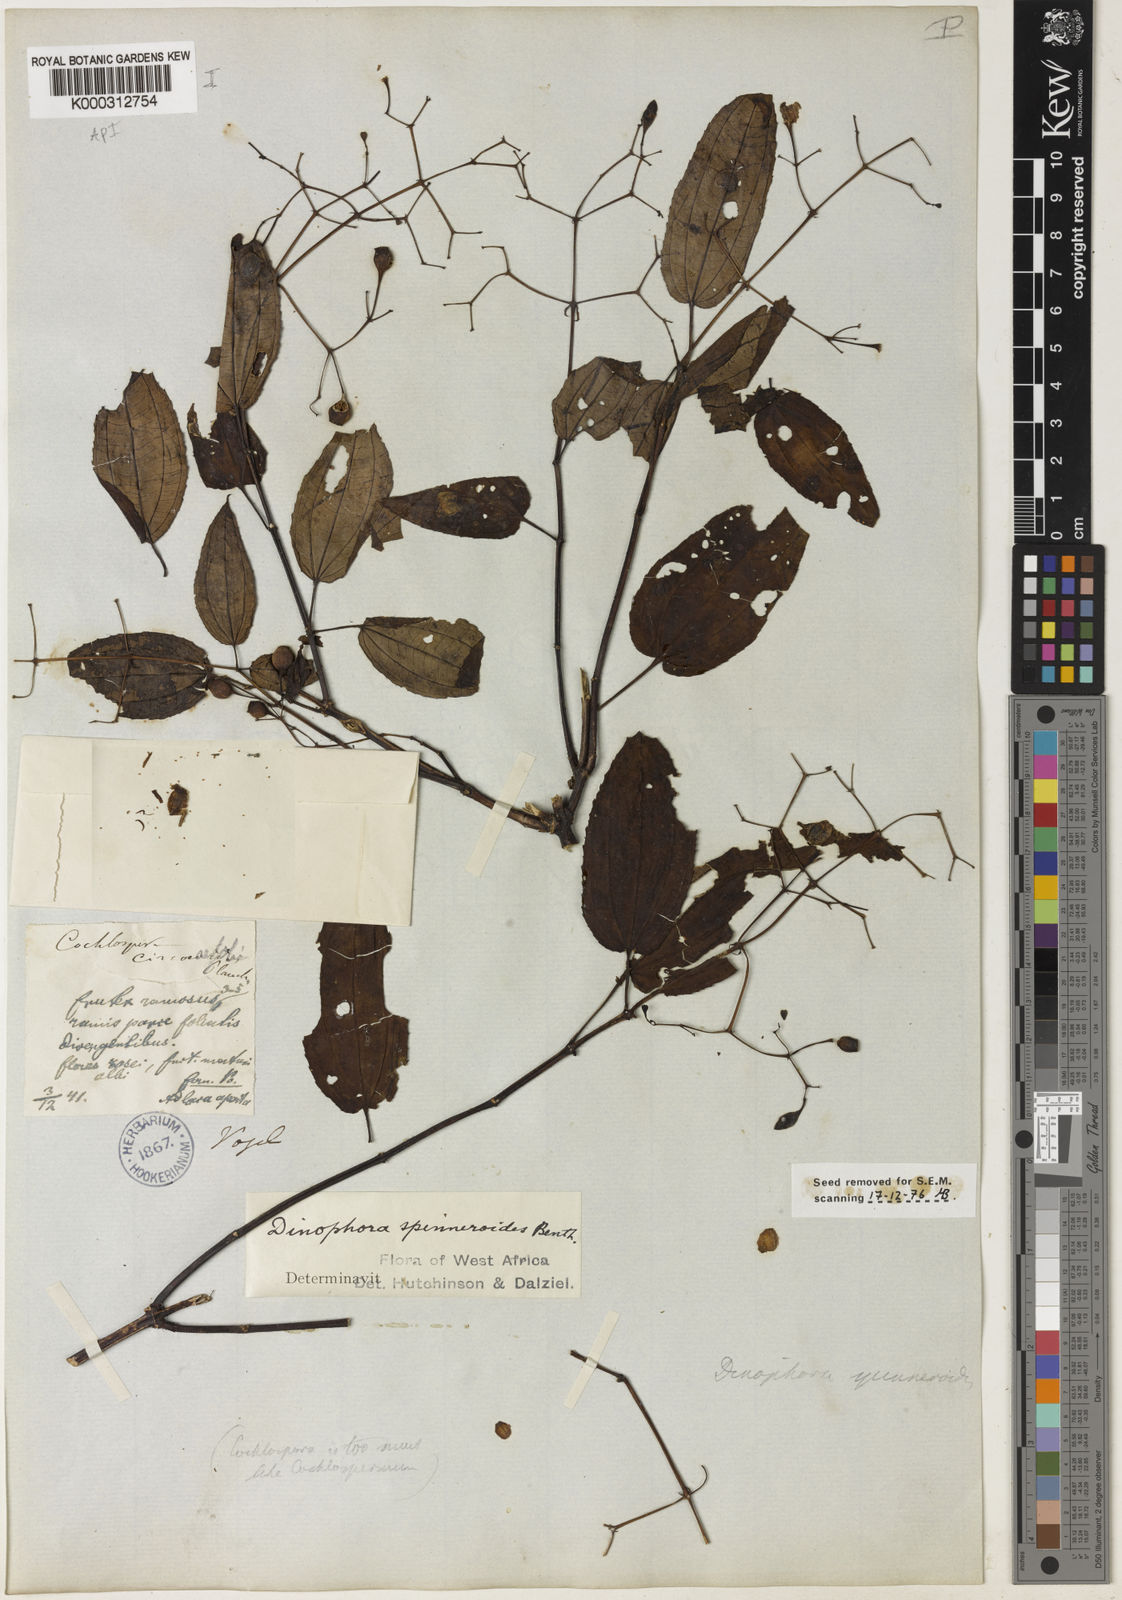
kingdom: Plantae
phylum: Tracheophyta
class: Magnoliopsida
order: Myrtales
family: Melastomataceae
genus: Dinophora
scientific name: Dinophora spenneroides
